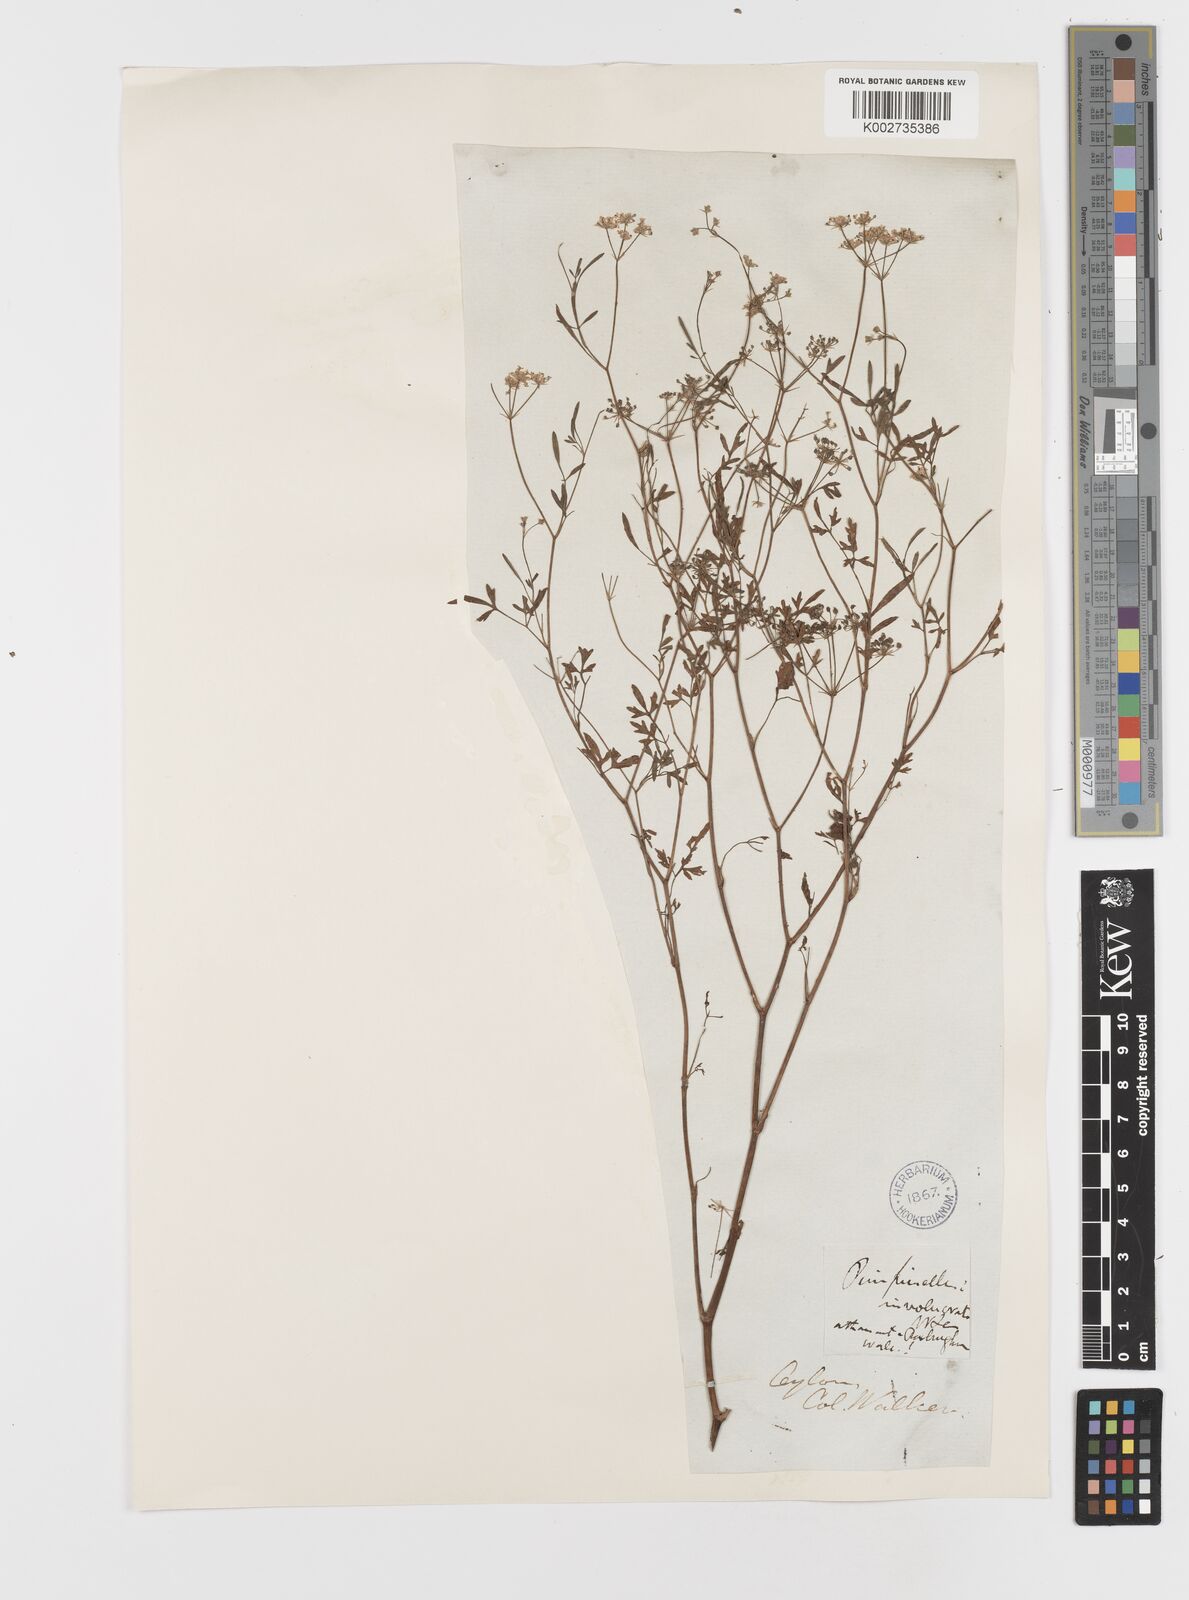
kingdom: Plantae
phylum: Tracheophyta
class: Magnoliopsida
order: Apiales
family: Apiaceae
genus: Trachyspermum
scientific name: Trachyspermum
